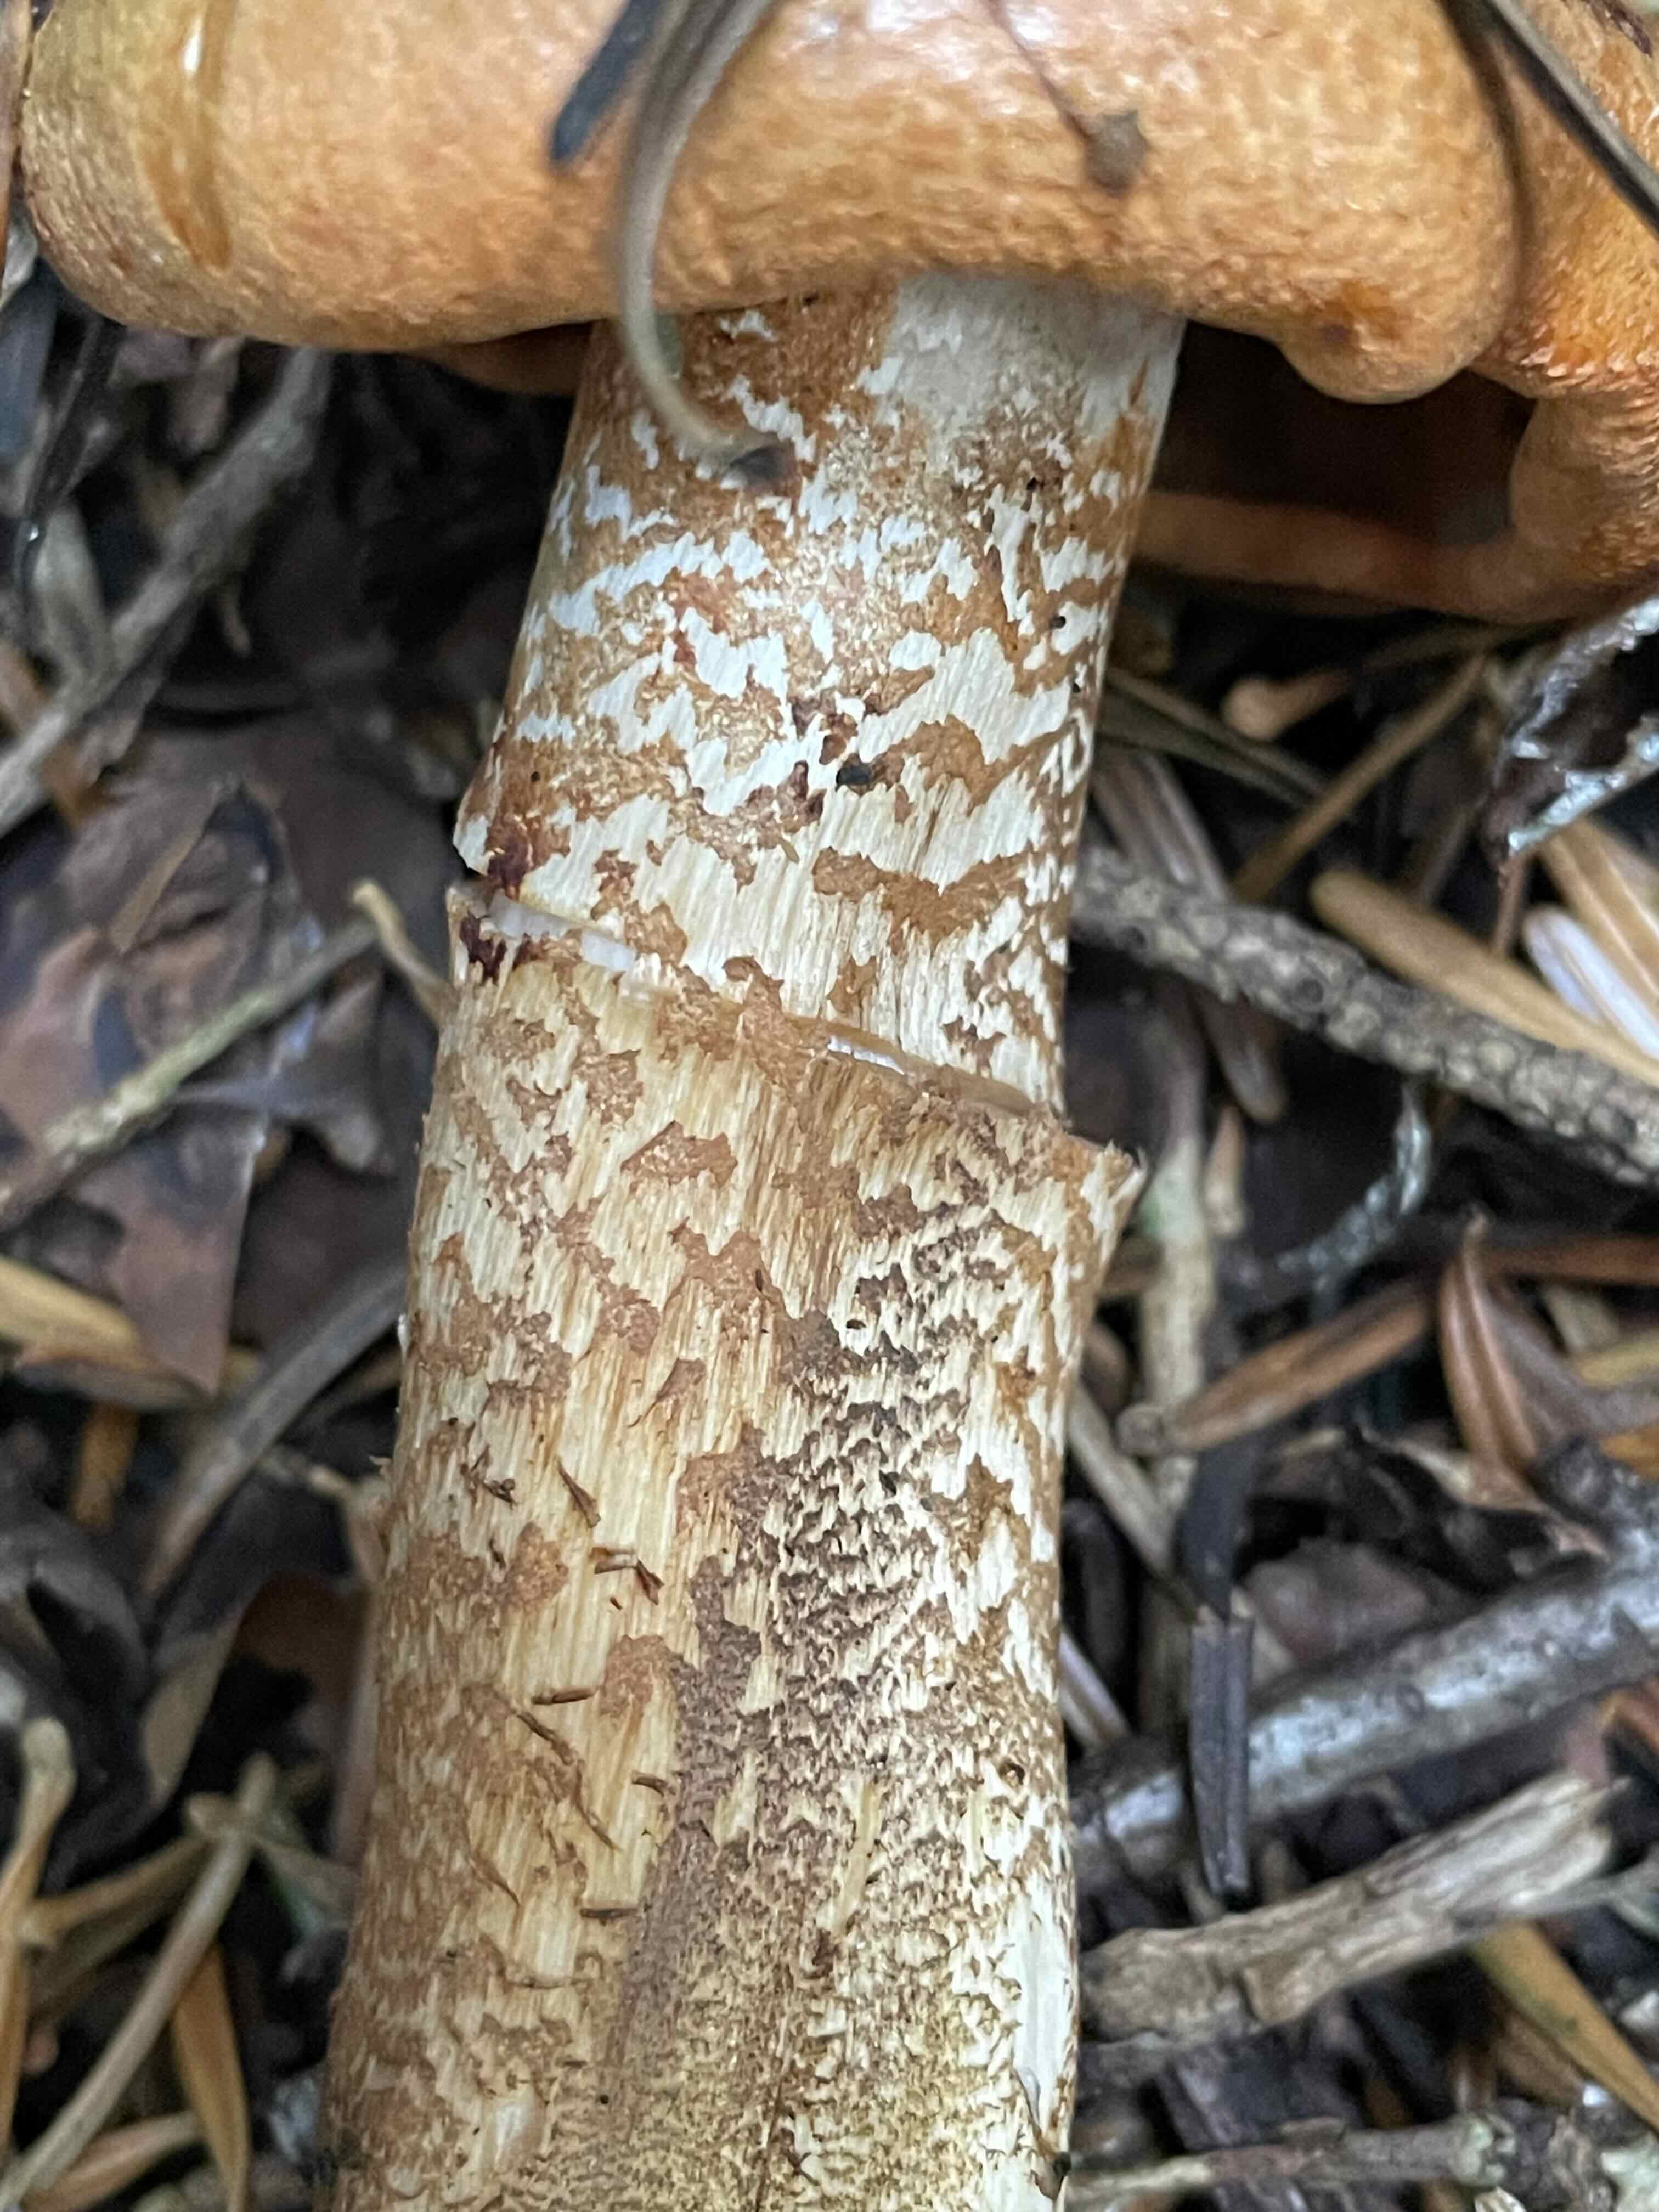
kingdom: Fungi
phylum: Basidiomycota
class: Agaricomycetes
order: Agaricales
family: Tricholomataceae
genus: Tricholoma
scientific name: Tricholoma aurantium
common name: orangegul ridderhat
